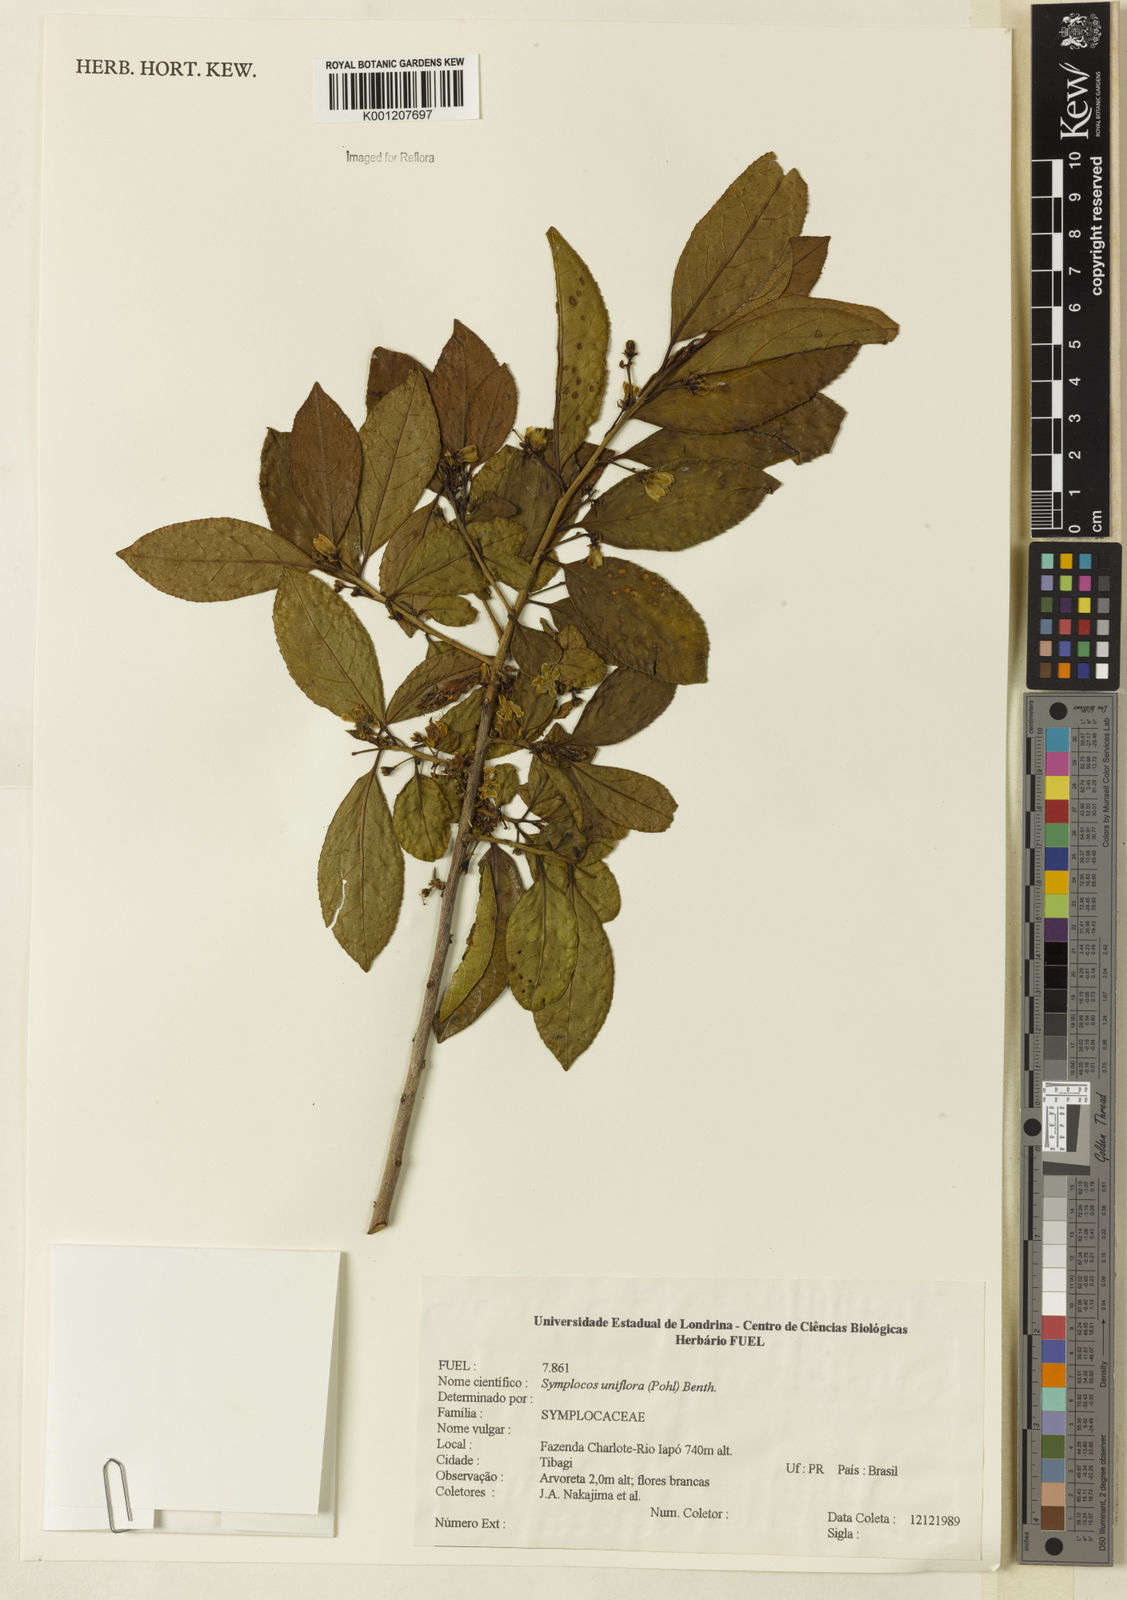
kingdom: Plantae
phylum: Tracheophyta
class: Magnoliopsida
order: Ericales
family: Symplocaceae
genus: Symplocos
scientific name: Symplocos uniflora
